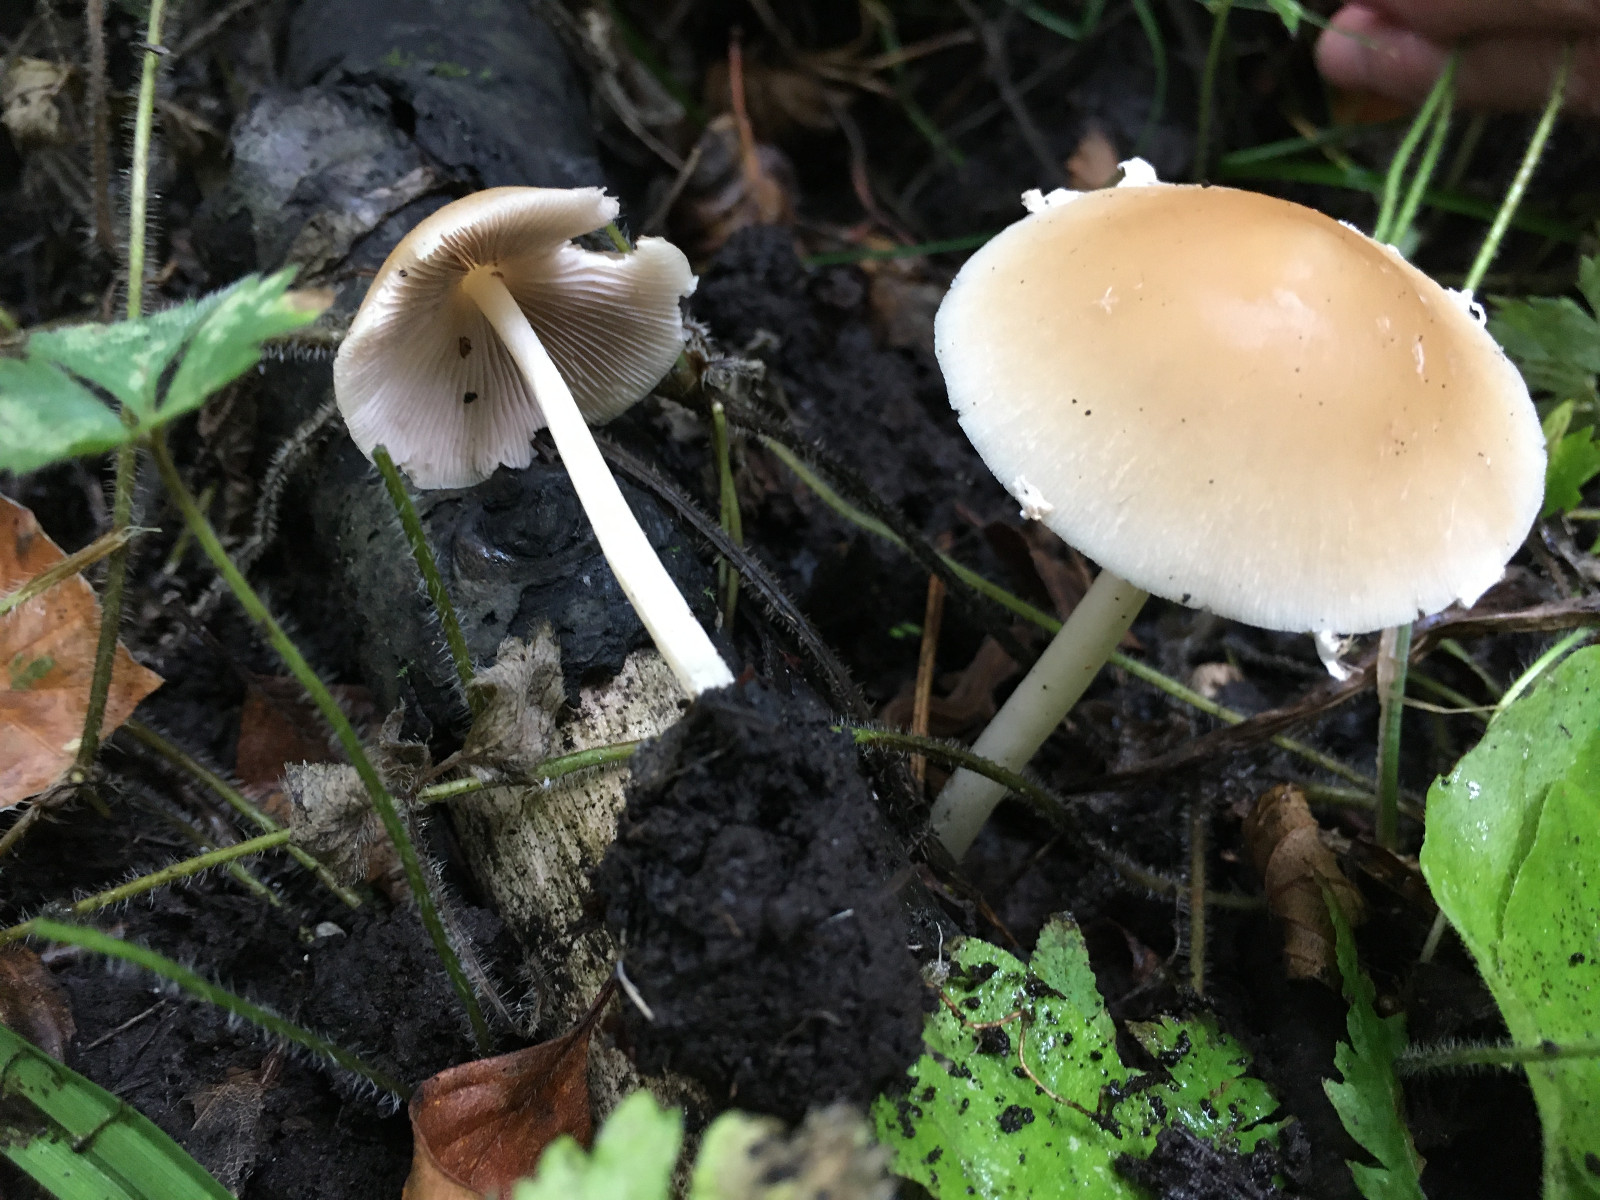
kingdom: Fungi
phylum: Basidiomycota
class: Agaricomycetes
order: Agaricales
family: Psathyrellaceae
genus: Candolleomyces
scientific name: Candolleomyces candolleanus
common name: Candolles mørkhat
